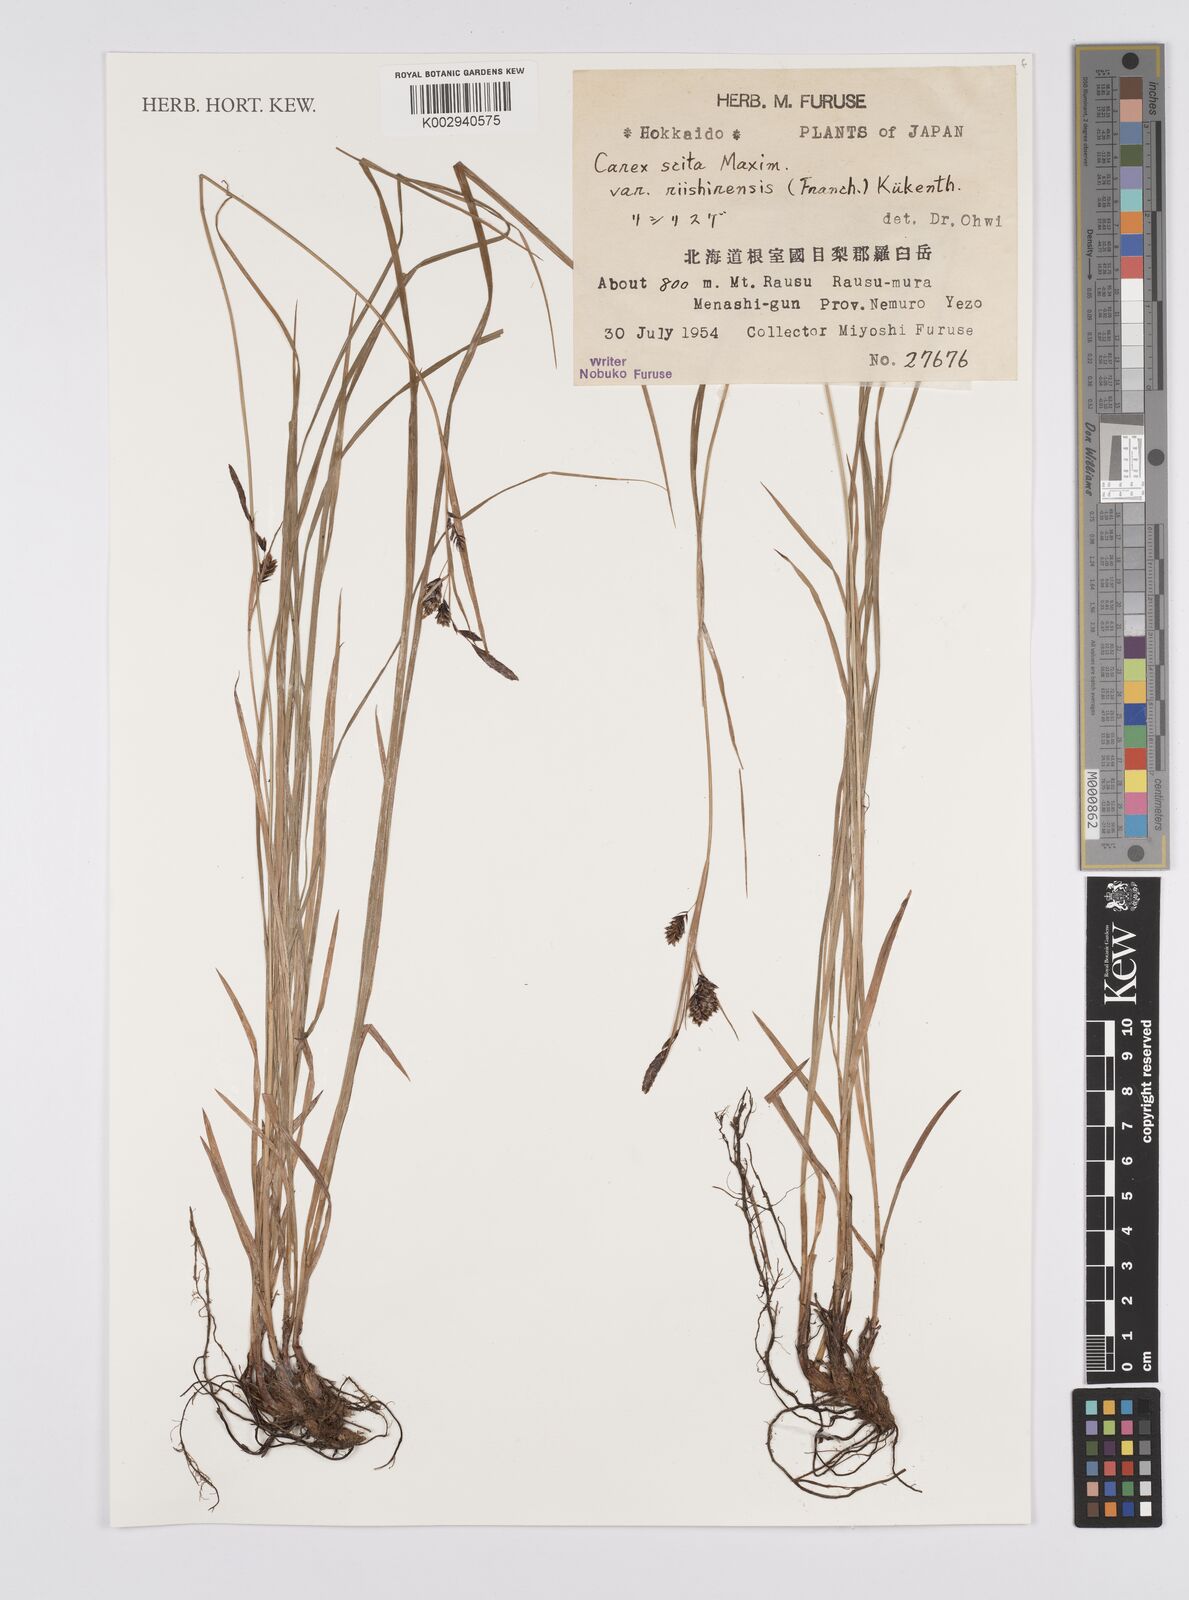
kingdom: Plantae
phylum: Tracheophyta
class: Liliopsida
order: Poales
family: Cyperaceae
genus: Carex
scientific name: Carex scita
